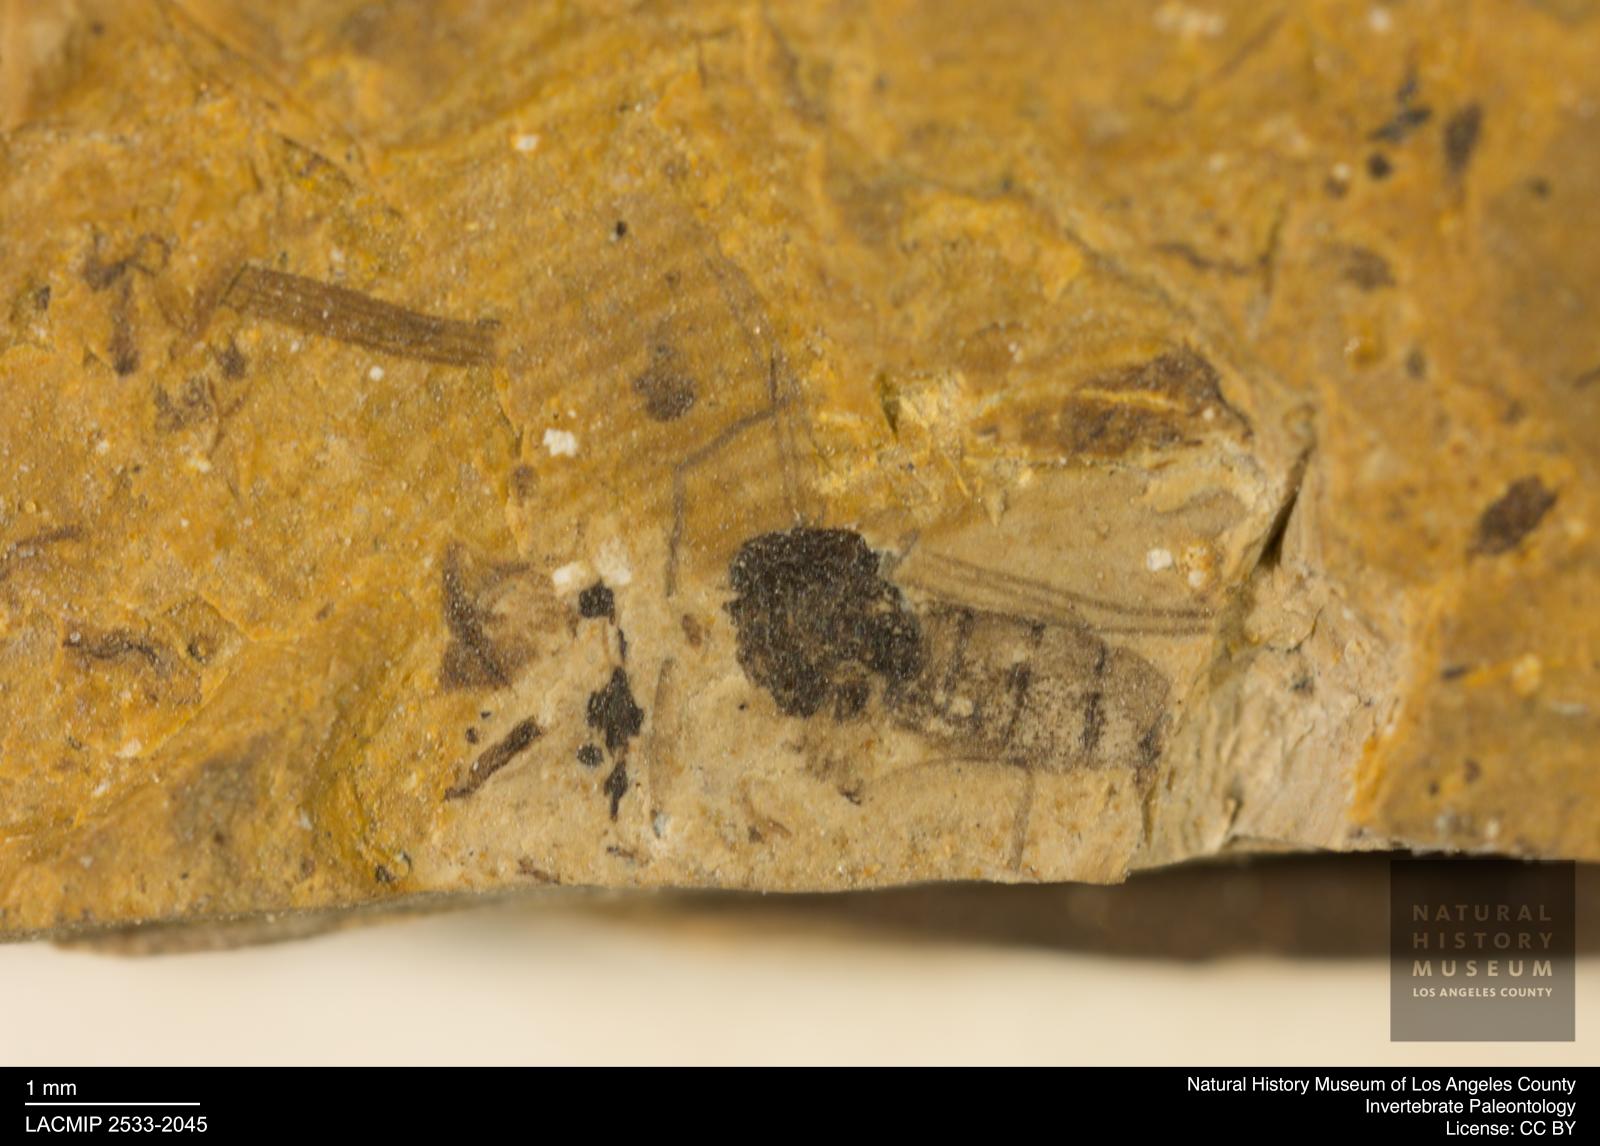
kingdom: Animalia
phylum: Arthropoda
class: Insecta
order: Diptera
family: Sciaridae
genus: Sciara
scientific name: Sciara winnertzii
